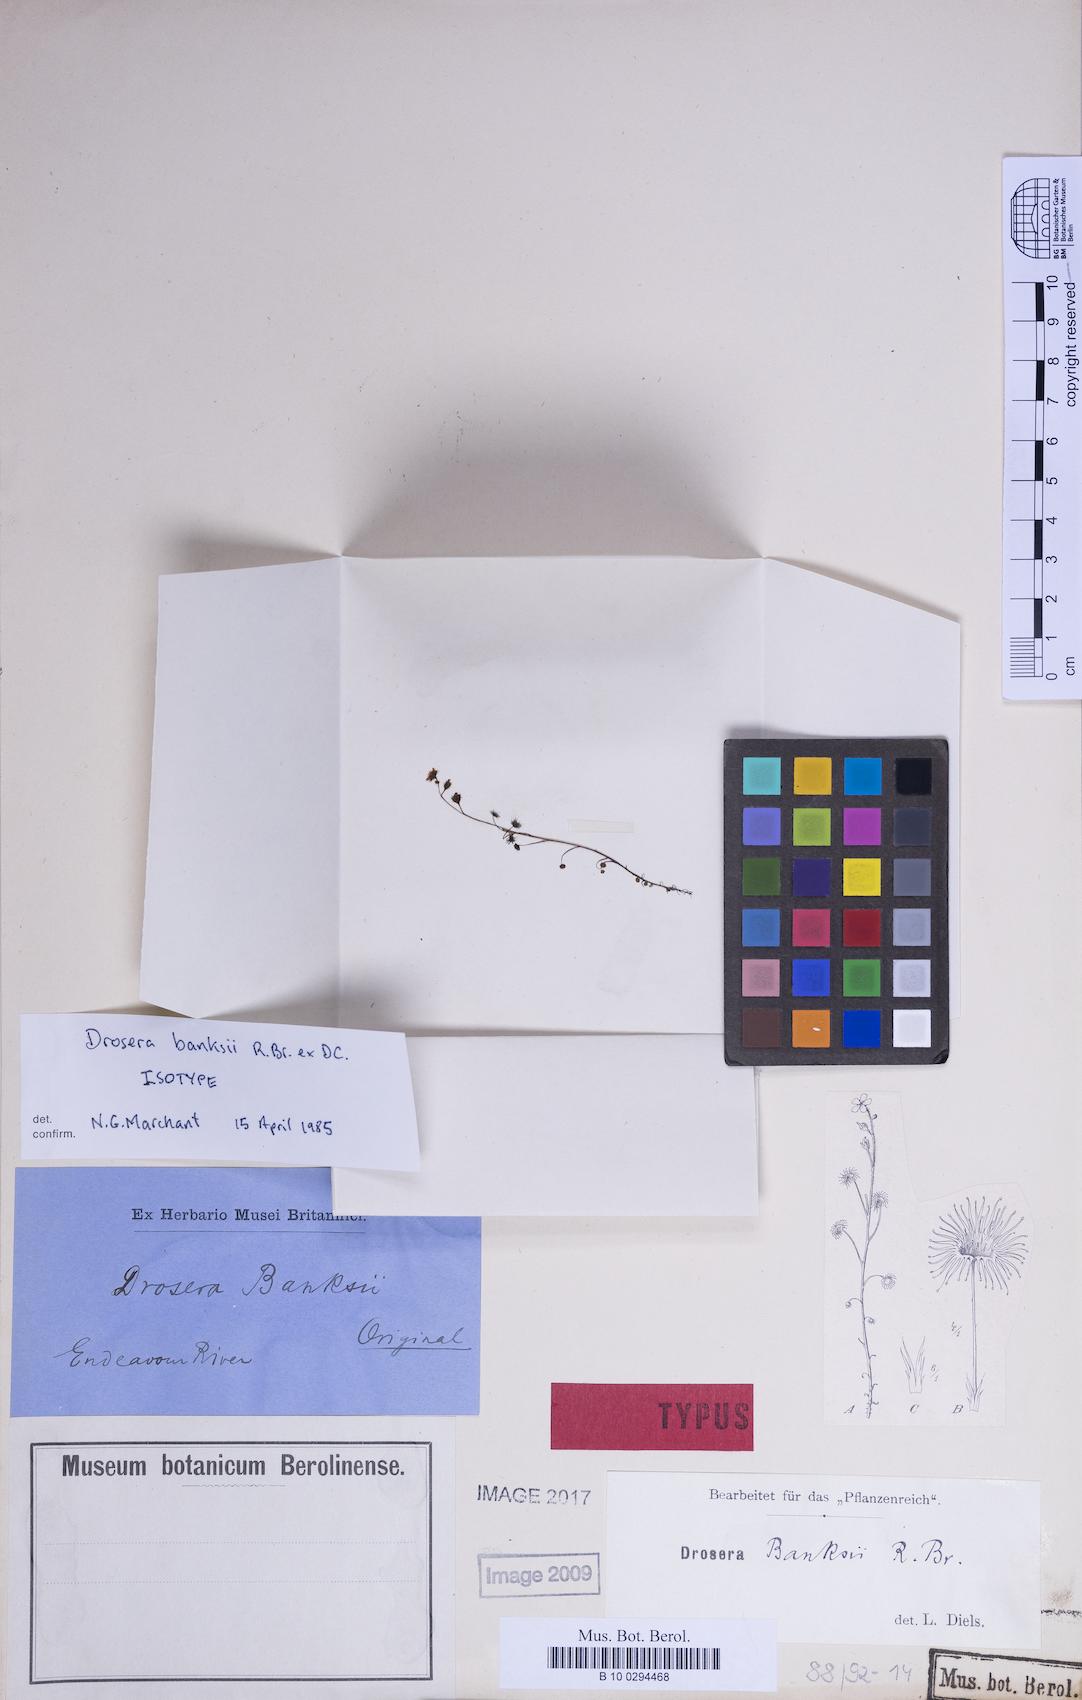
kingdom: Plantae
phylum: Tracheophyta
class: Magnoliopsida
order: Caryophyllales
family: Droseraceae
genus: Drosera
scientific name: Drosera banksii
